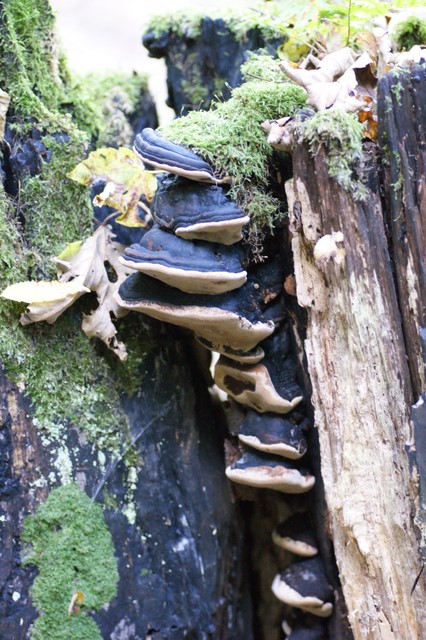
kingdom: Fungi
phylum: Basidiomycota
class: Agaricomycetes
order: Hymenochaetales
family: Hymenochaetaceae
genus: Phellinus
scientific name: Phellinus populicola
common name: poppel-ildporesvamp
